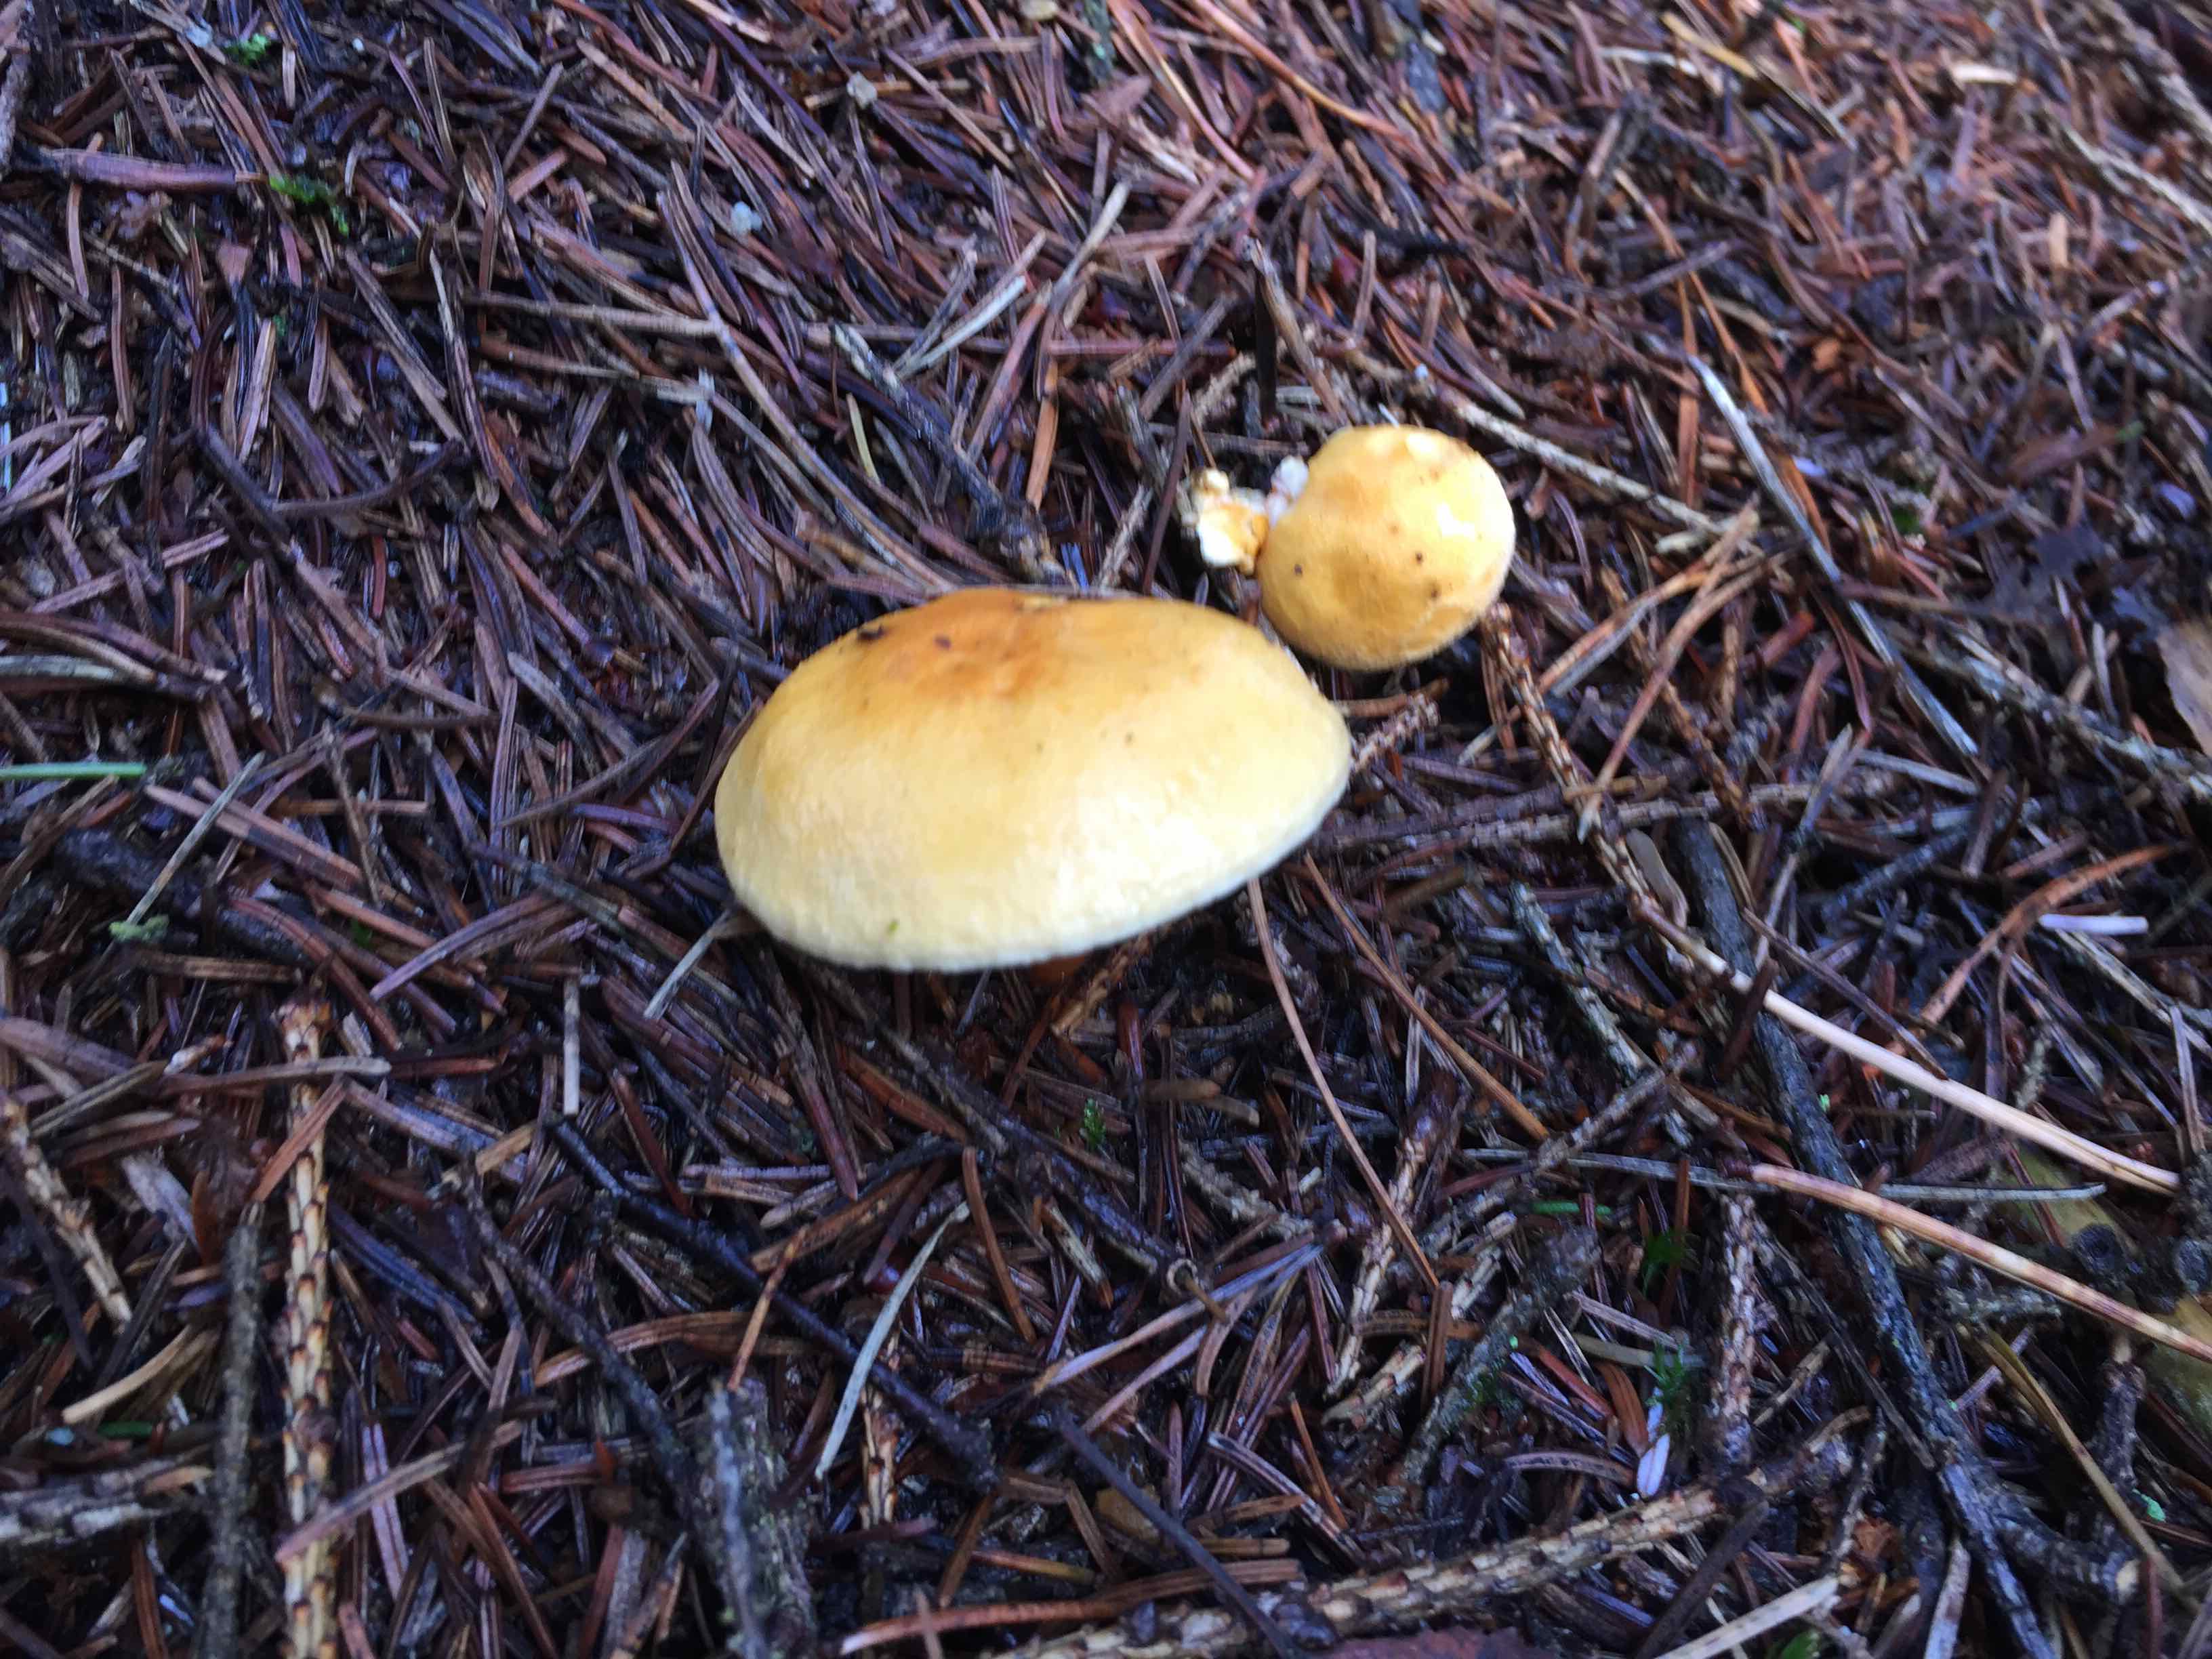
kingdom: Fungi
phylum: Basidiomycota
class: Agaricomycetes
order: Agaricales
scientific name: Agaricales
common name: champignonordenen
